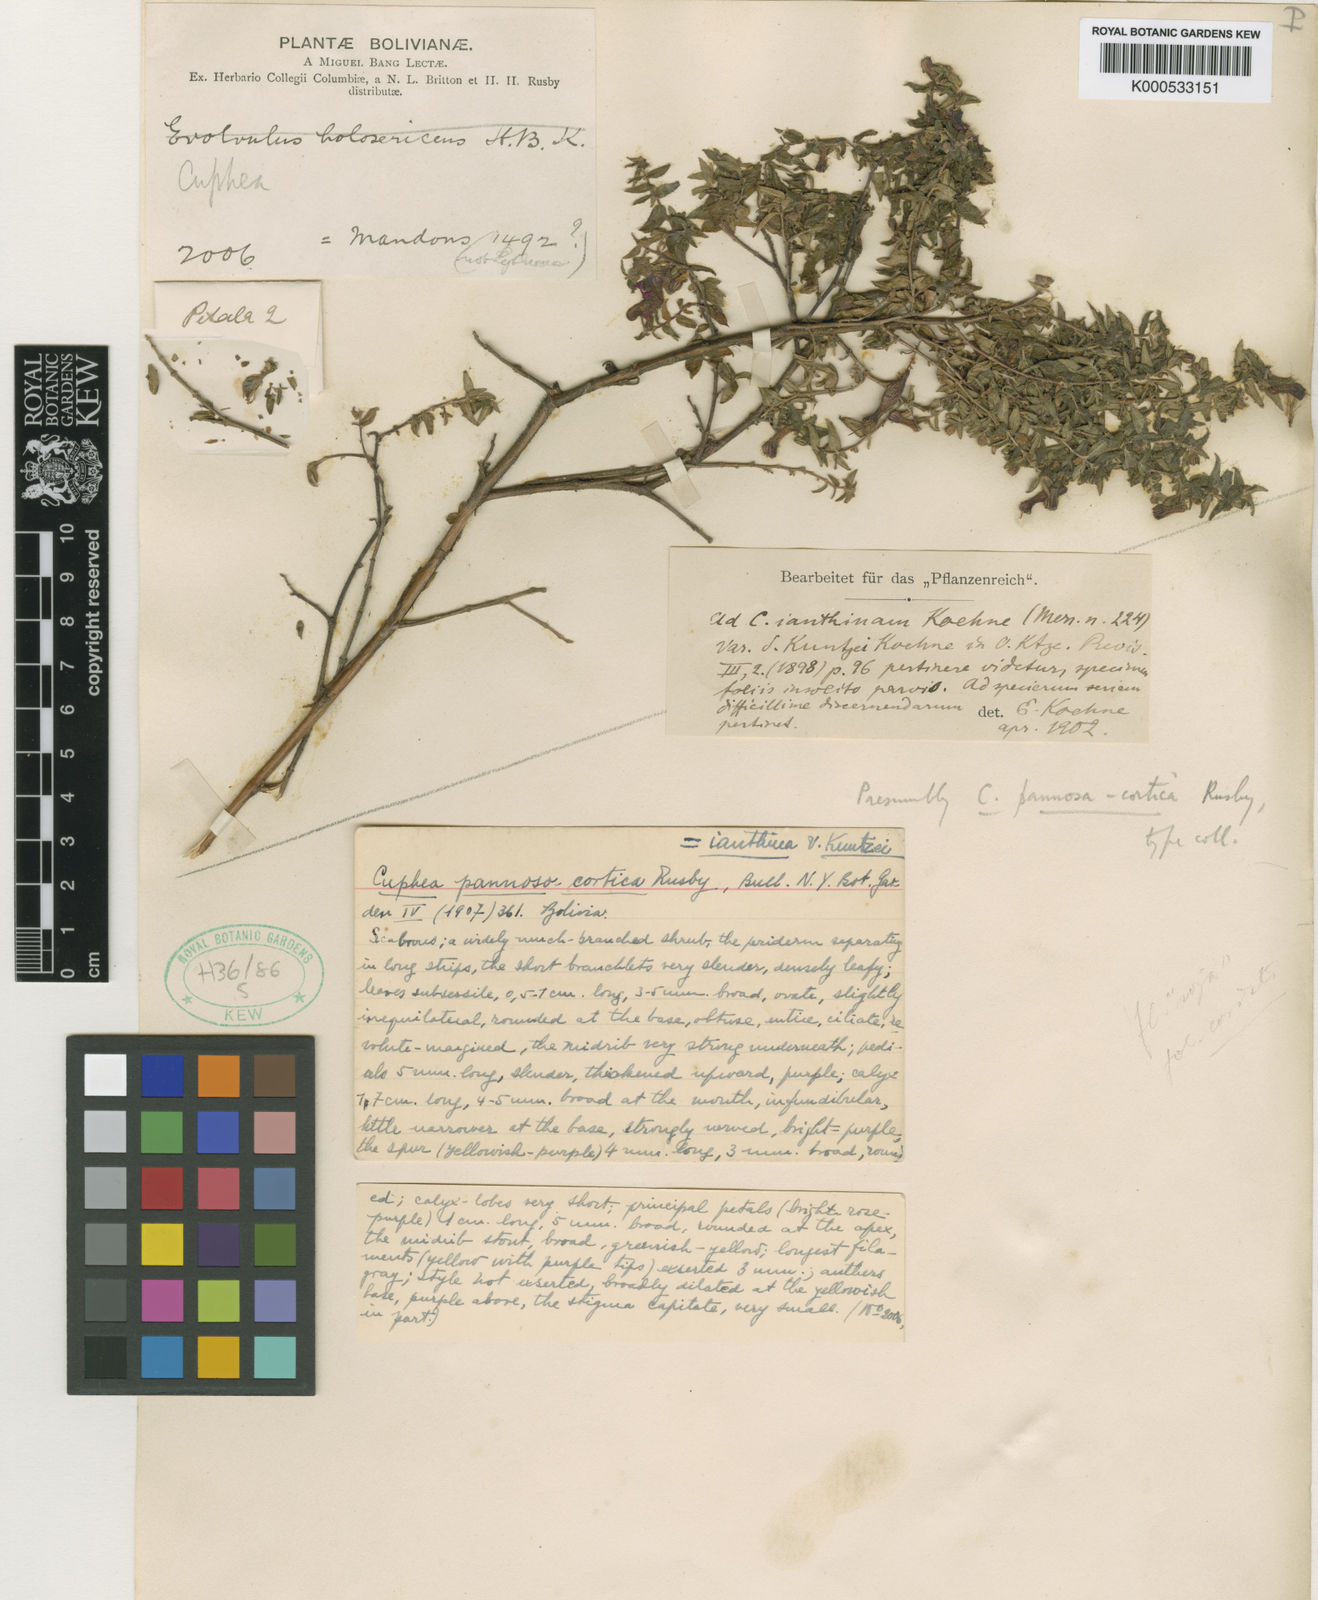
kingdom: Plantae
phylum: Tracheophyta
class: Magnoliopsida
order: Myrtales
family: Lythraceae
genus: Cuphea
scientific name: Cuphea cordata
